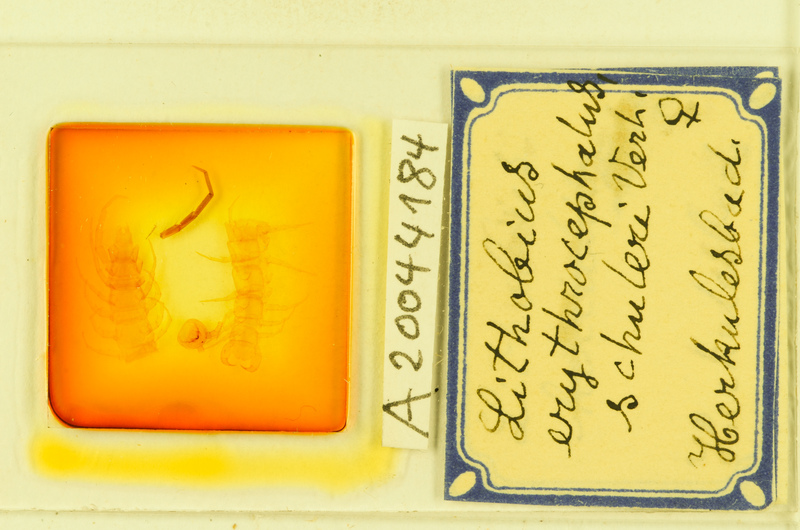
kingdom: Animalia
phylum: Arthropoda
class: Chilopoda
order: Lithobiomorpha
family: Lithobiidae
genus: Lithobius
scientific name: Lithobius erythrocephalus
